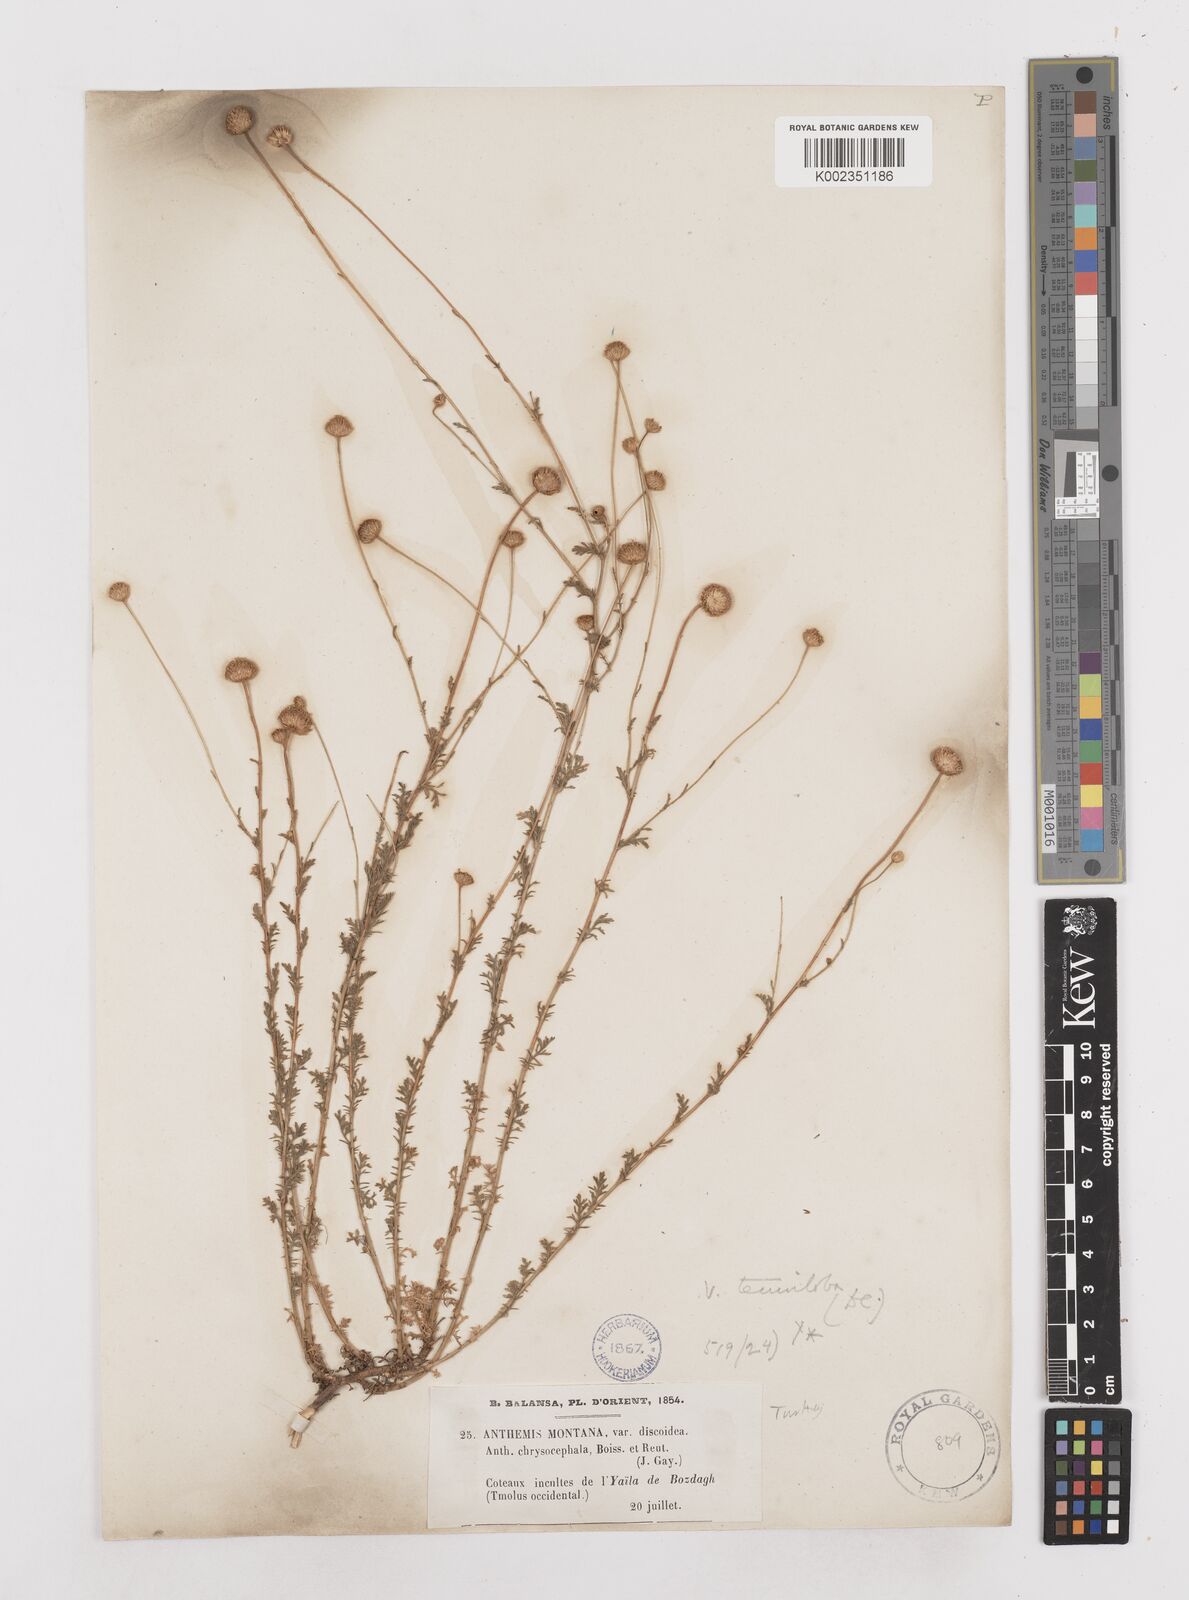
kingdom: Plantae
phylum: Tracheophyta
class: Magnoliopsida
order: Asterales
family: Asteraceae
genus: Anthemis
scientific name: Anthemis cretica
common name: Mountain dog-daisy
